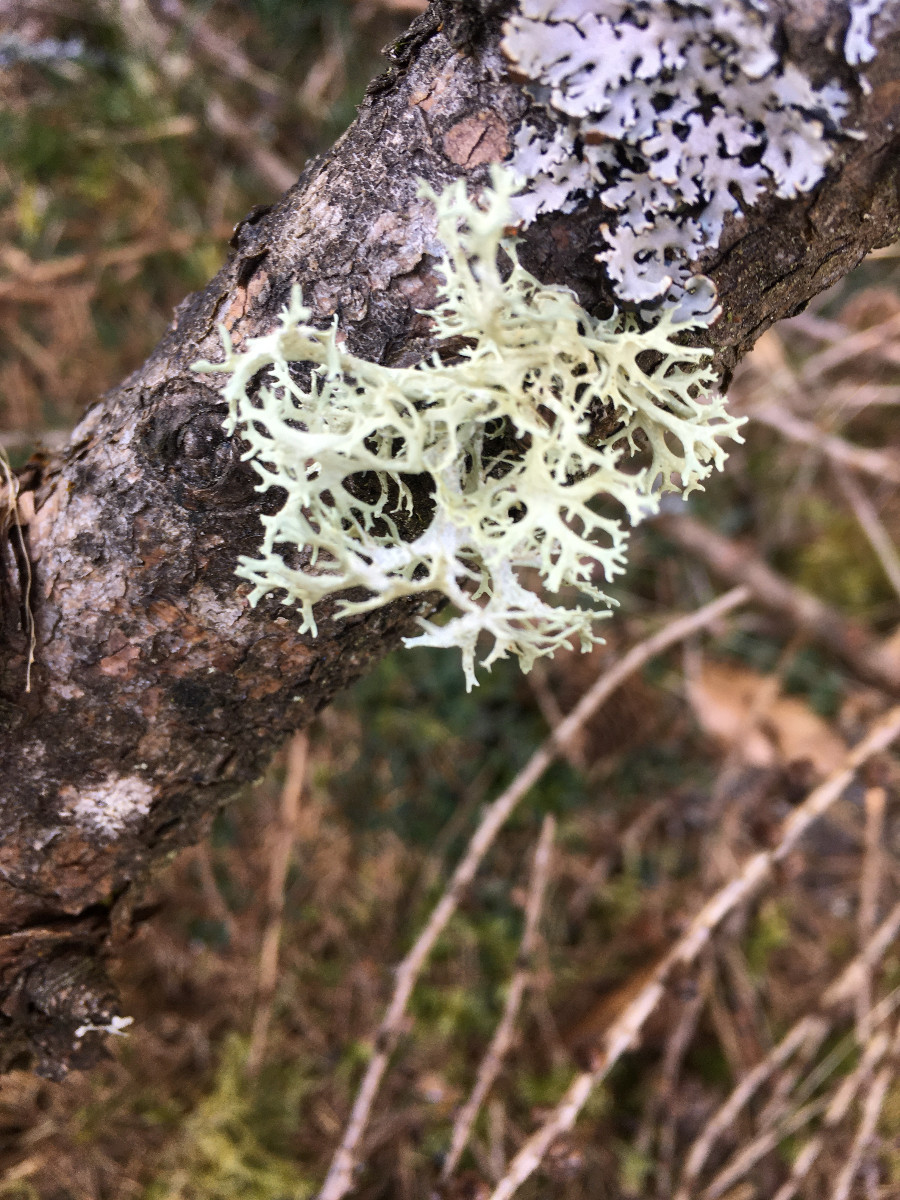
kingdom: Fungi
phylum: Ascomycota
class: Lecanoromycetes
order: Lecanorales
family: Parmeliaceae
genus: Evernia
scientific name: Evernia prunastri
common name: almindelig slåenlav
